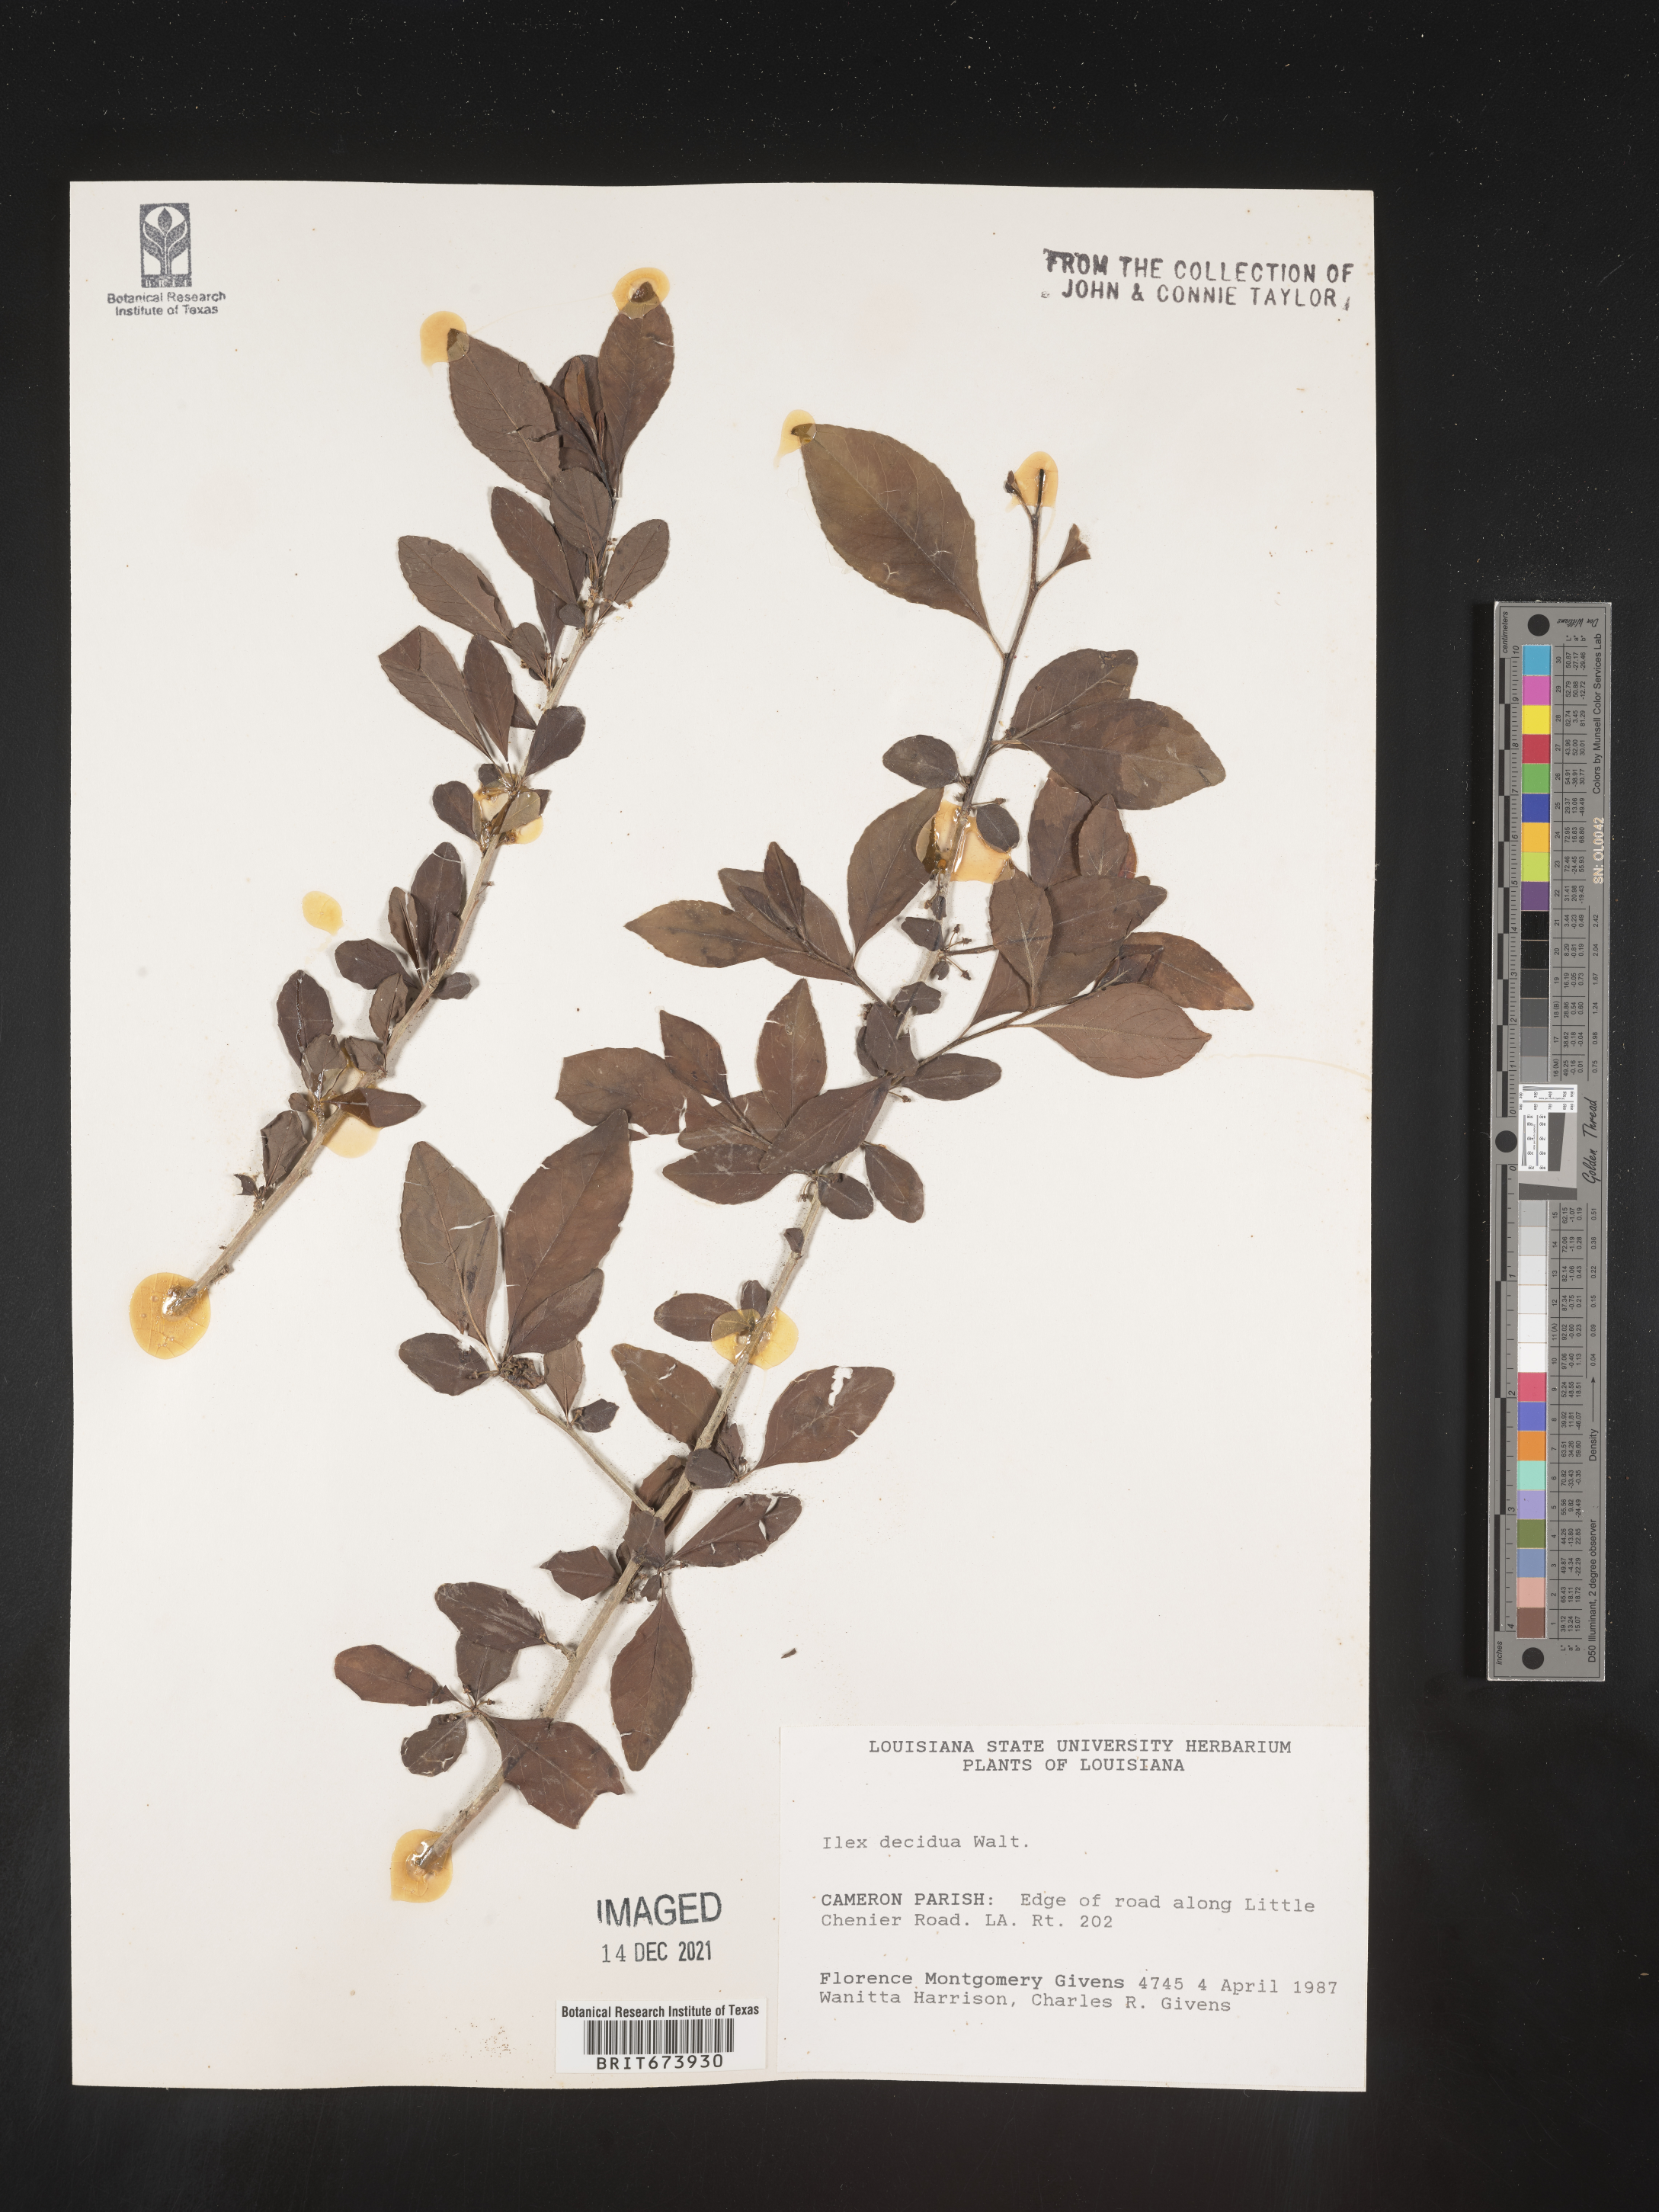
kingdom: Plantae
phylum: Tracheophyta
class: Magnoliopsida
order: Aquifoliales
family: Aquifoliaceae
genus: Ilex
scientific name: Ilex decidua
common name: Possum-haw
